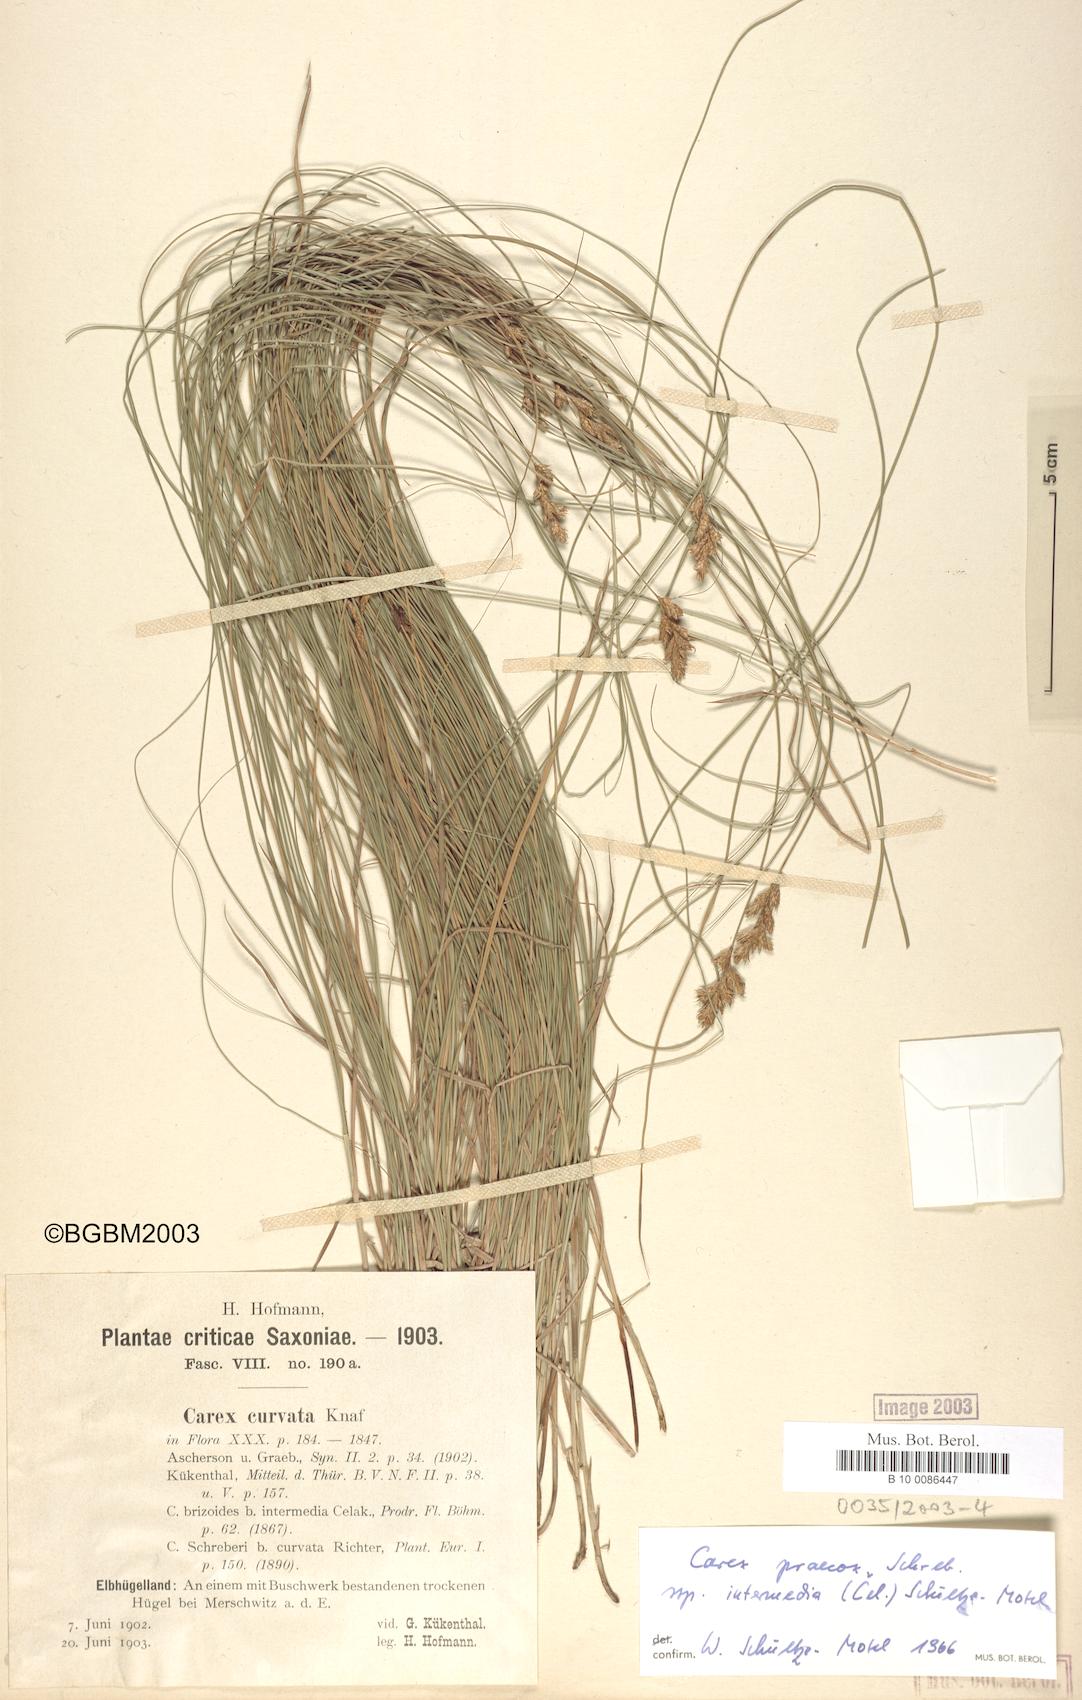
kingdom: Plantae
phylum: Tracheophyta
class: Liliopsida
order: Poales
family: Cyperaceae
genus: Carex
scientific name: Carex curvata
